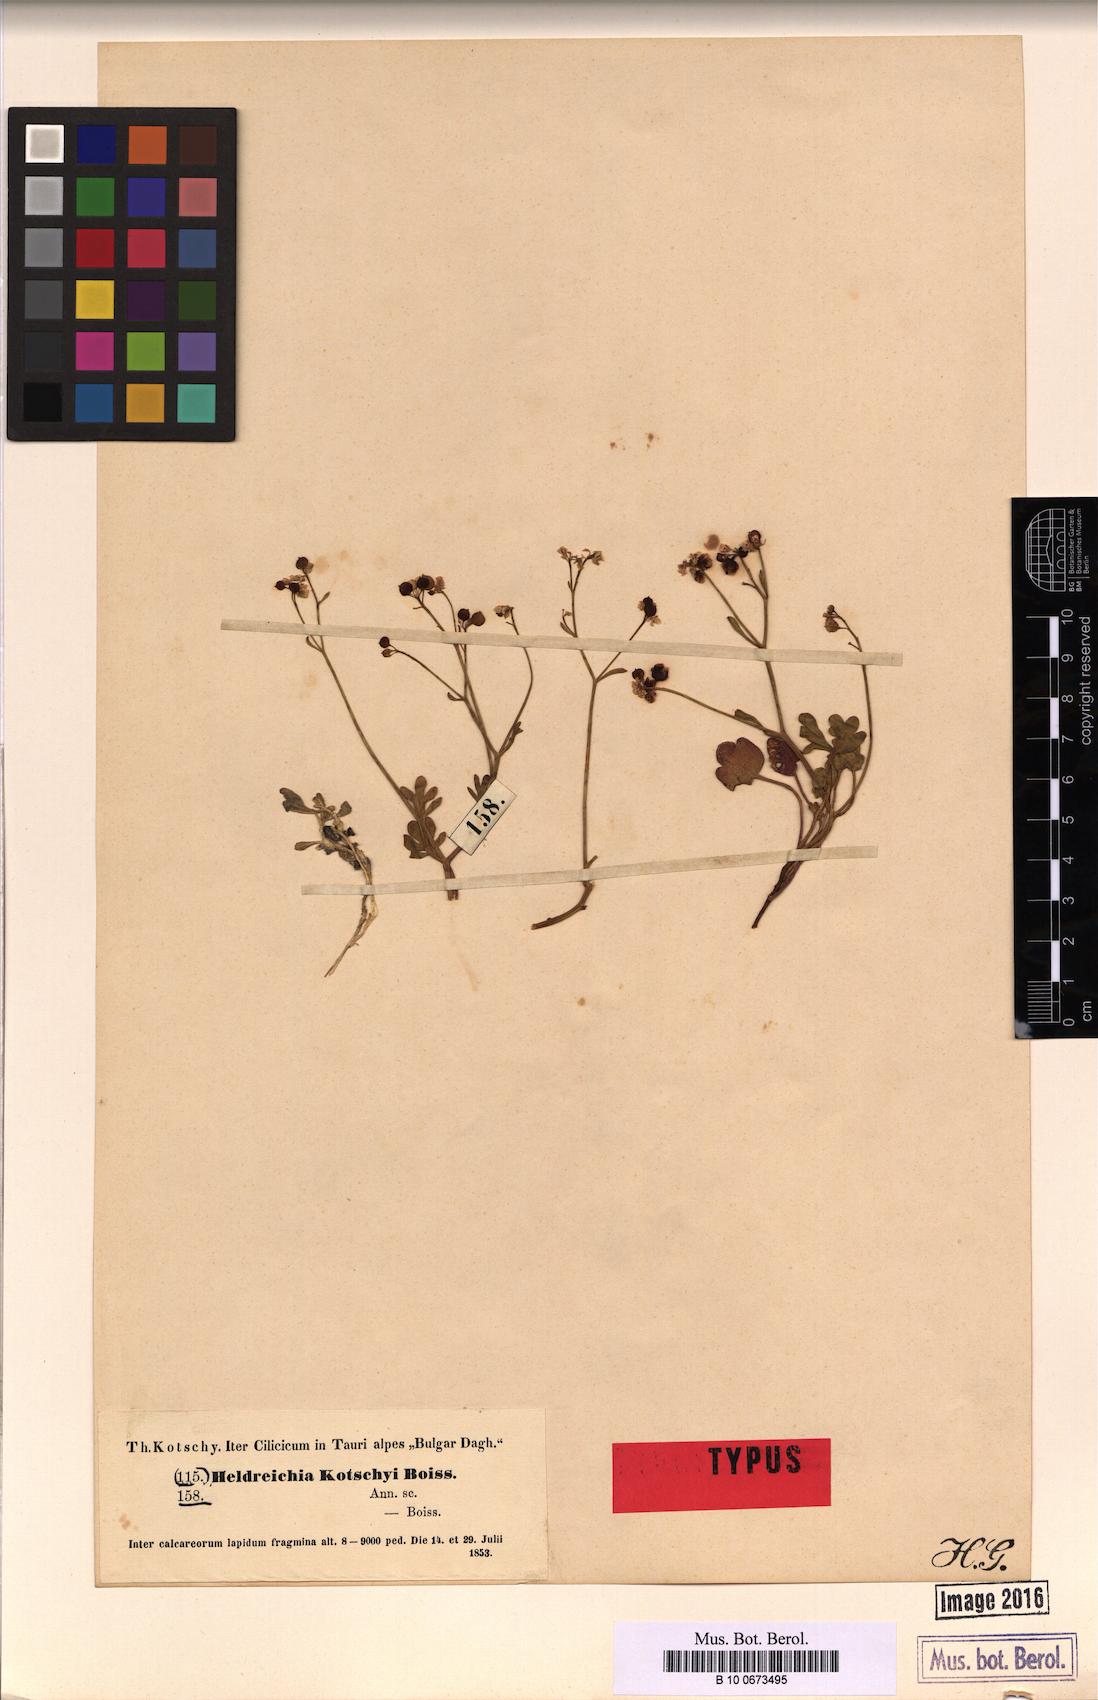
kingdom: Plantae
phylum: Tracheophyta
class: Magnoliopsida
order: Brassicales
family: Brassicaceae
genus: Heldreichia
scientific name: Heldreichia bupleurifolia
